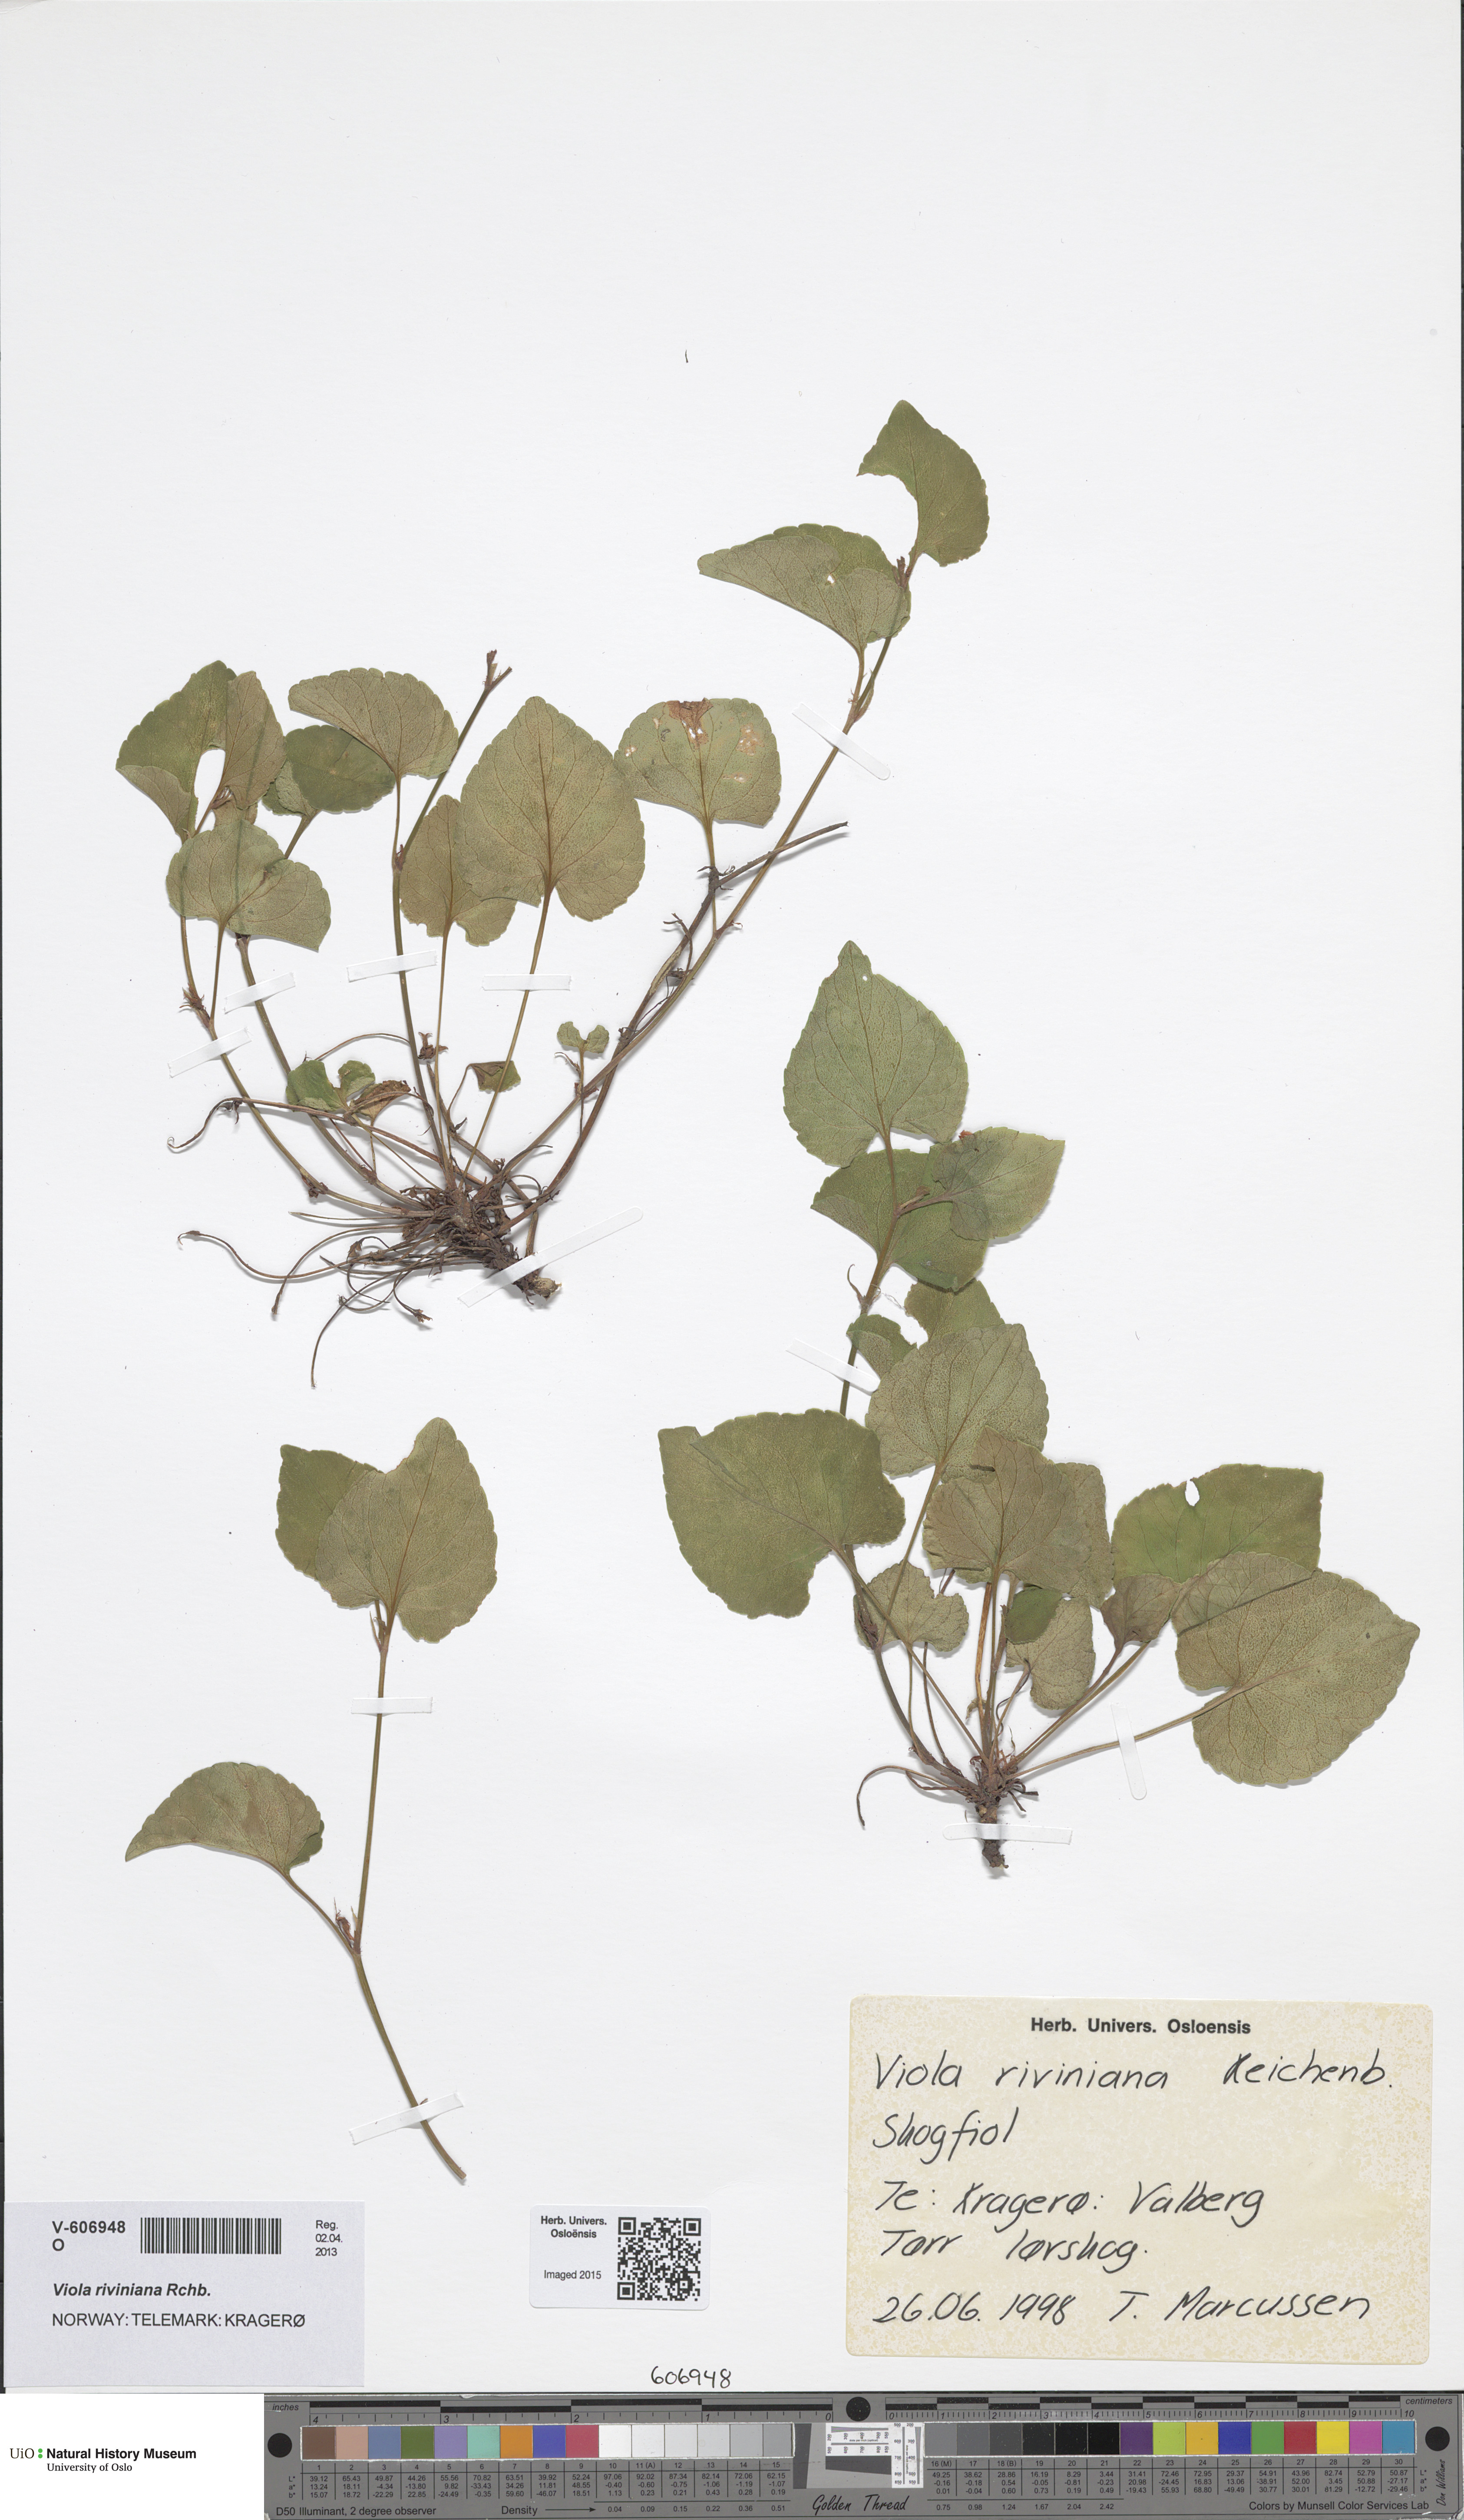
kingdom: Plantae
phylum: Tracheophyta
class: Magnoliopsida
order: Malpighiales
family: Violaceae
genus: Viola
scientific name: Viola riviniana
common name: Common dog-violet
